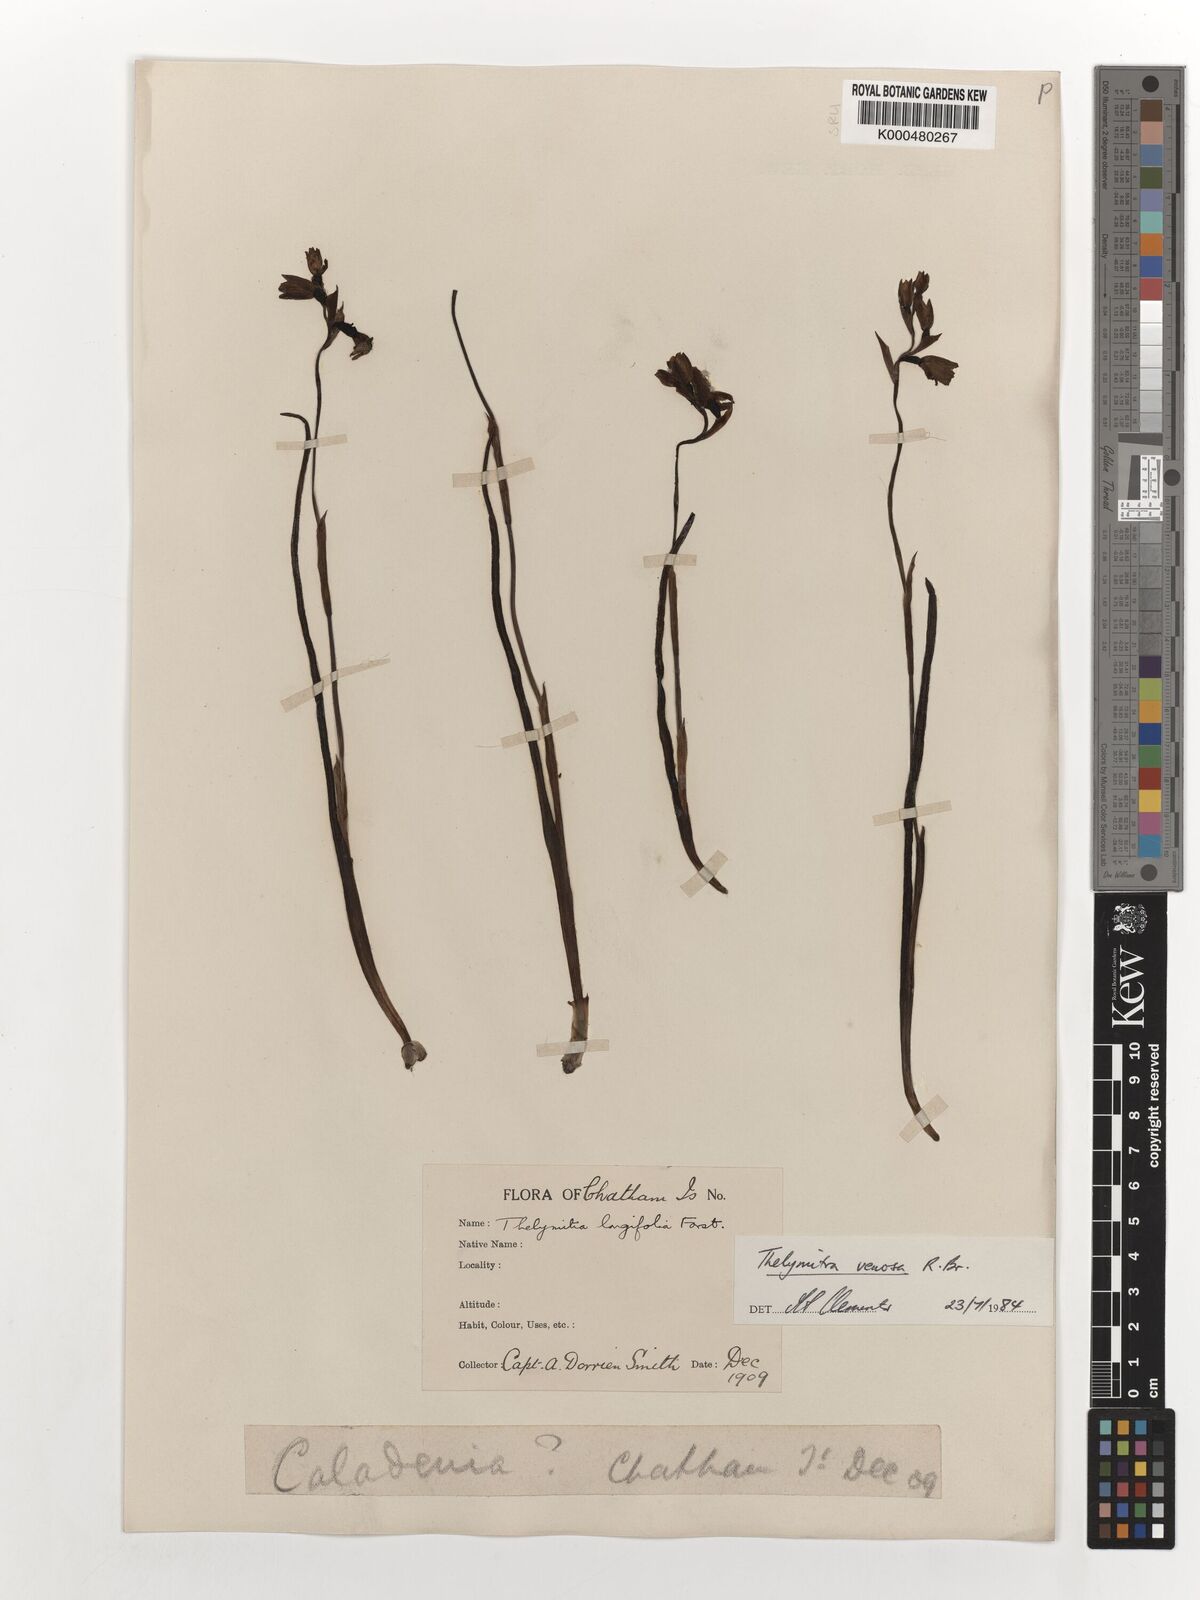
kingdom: Plantae
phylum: Tracheophyta
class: Liliopsida
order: Asparagales
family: Orchidaceae
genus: Thelymitra
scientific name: Thelymitra cyanea
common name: Blue sun-orchid
